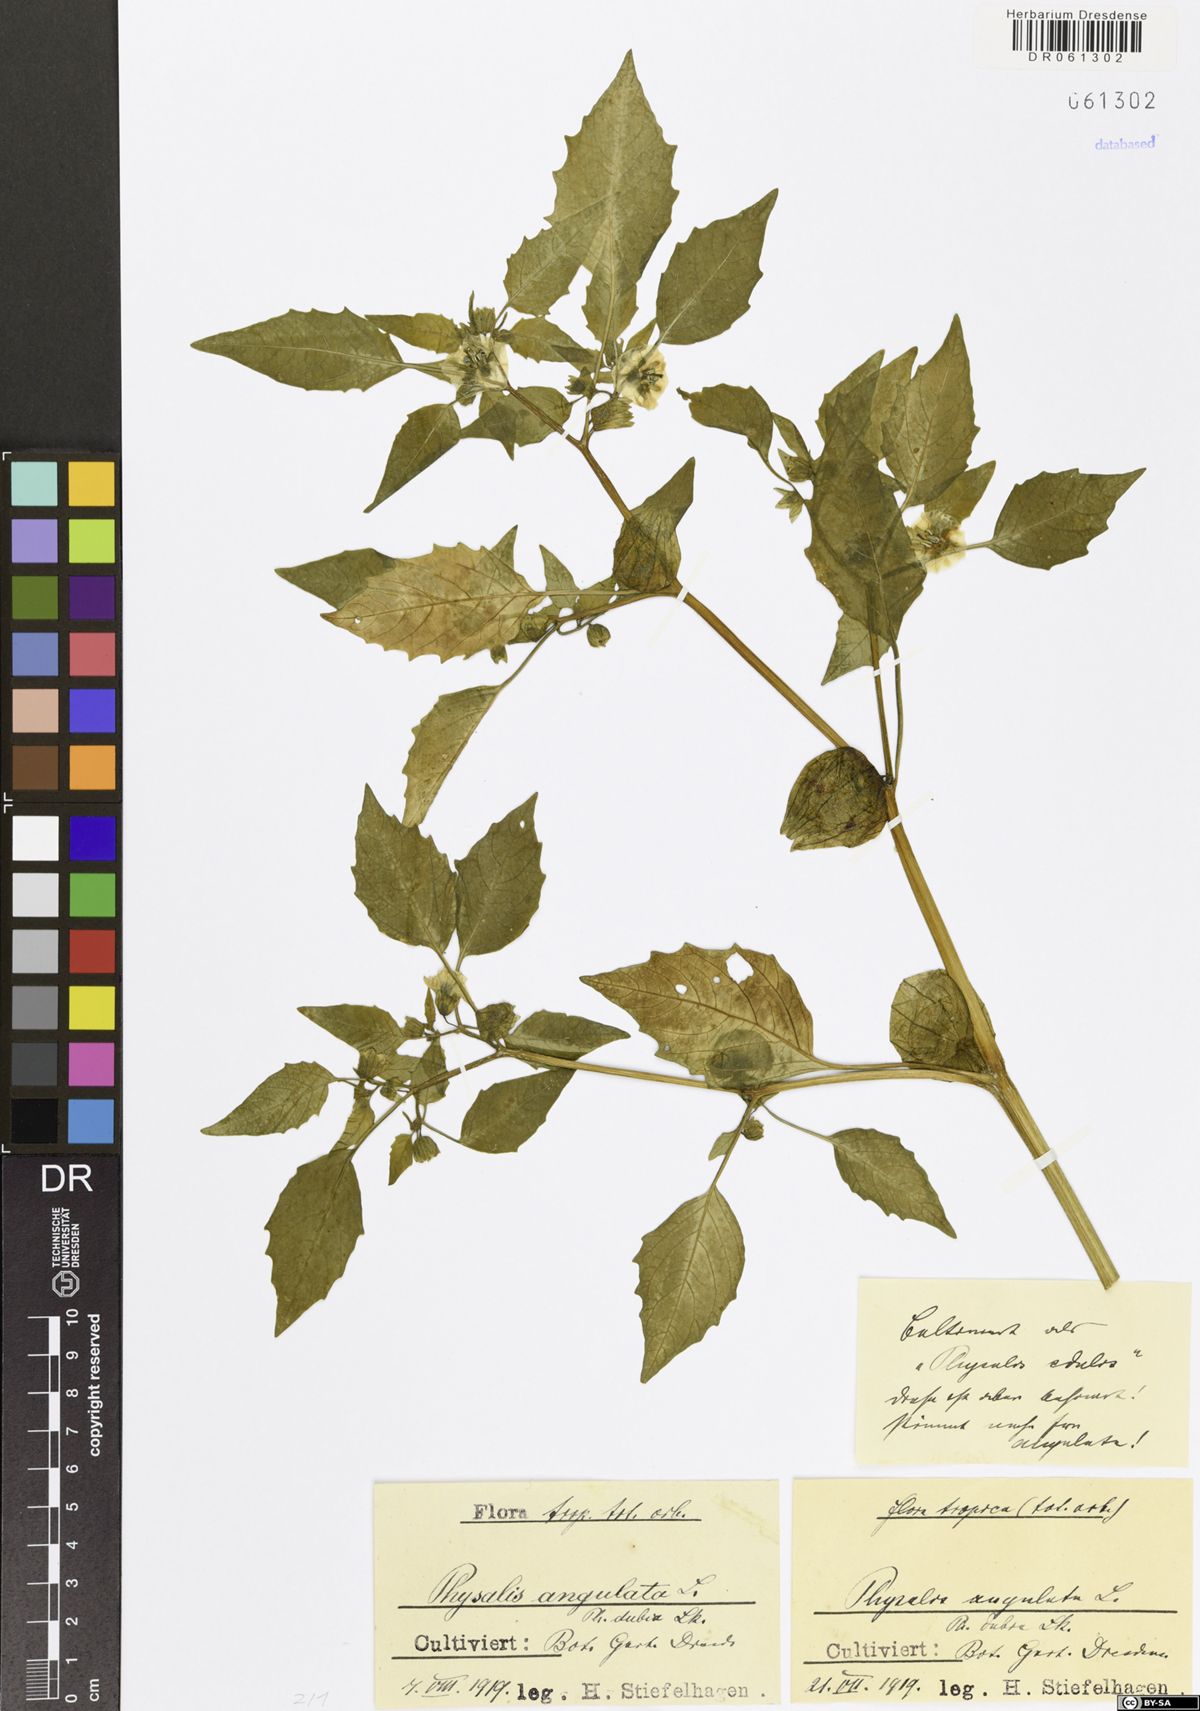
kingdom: Plantae
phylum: Tracheophyta
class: Magnoliopsida
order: Solanales
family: Solanaceae
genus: Physalis
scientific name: Physalis angulata
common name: Angular winter-cherry
